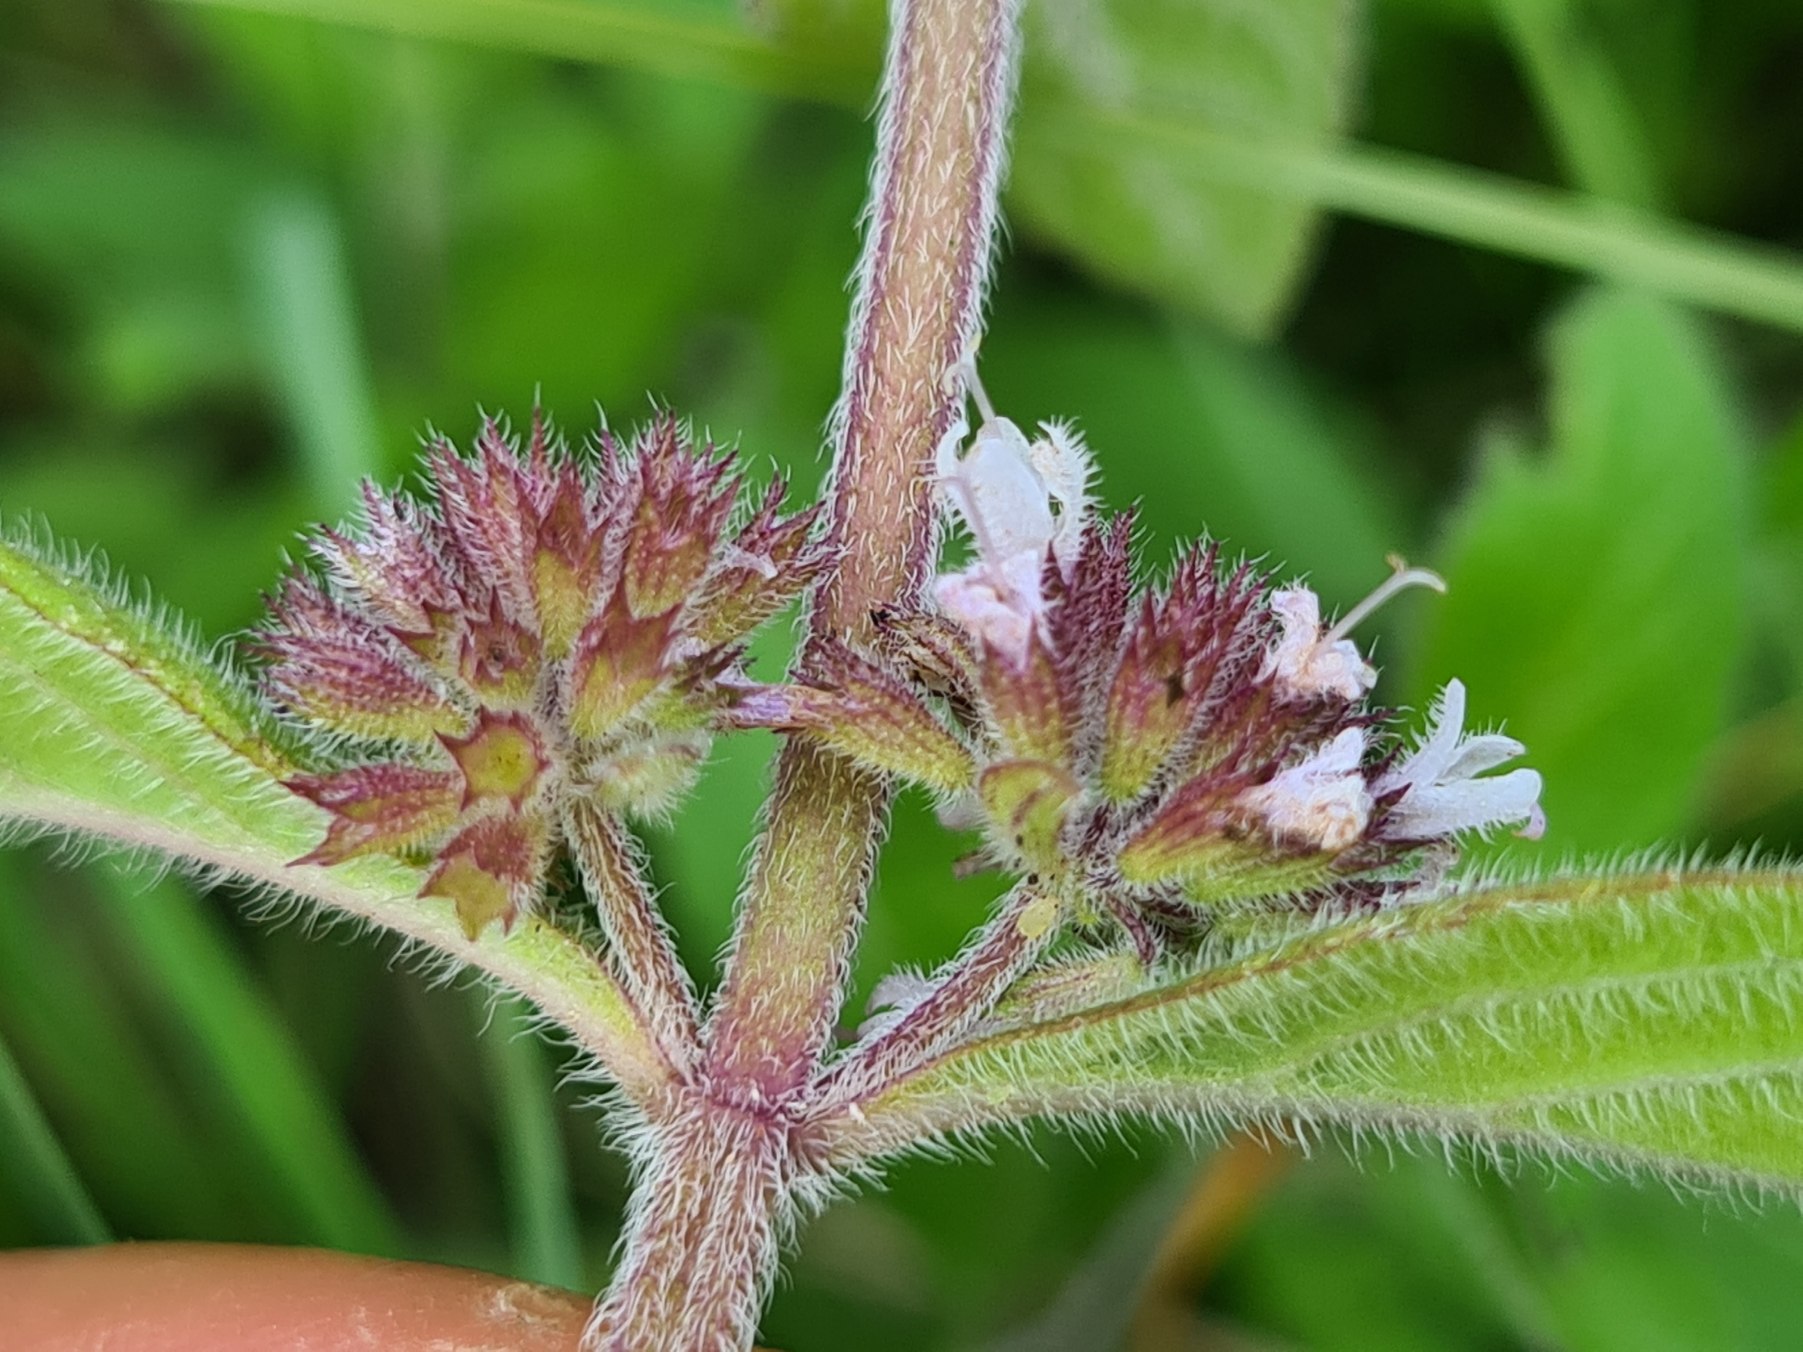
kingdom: Plantae
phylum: Tracheophyta
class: Magnoliopsida
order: Lamiales
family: Lamiaceae
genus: Mentha
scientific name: Mentha verticillata
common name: Krans-mynte
